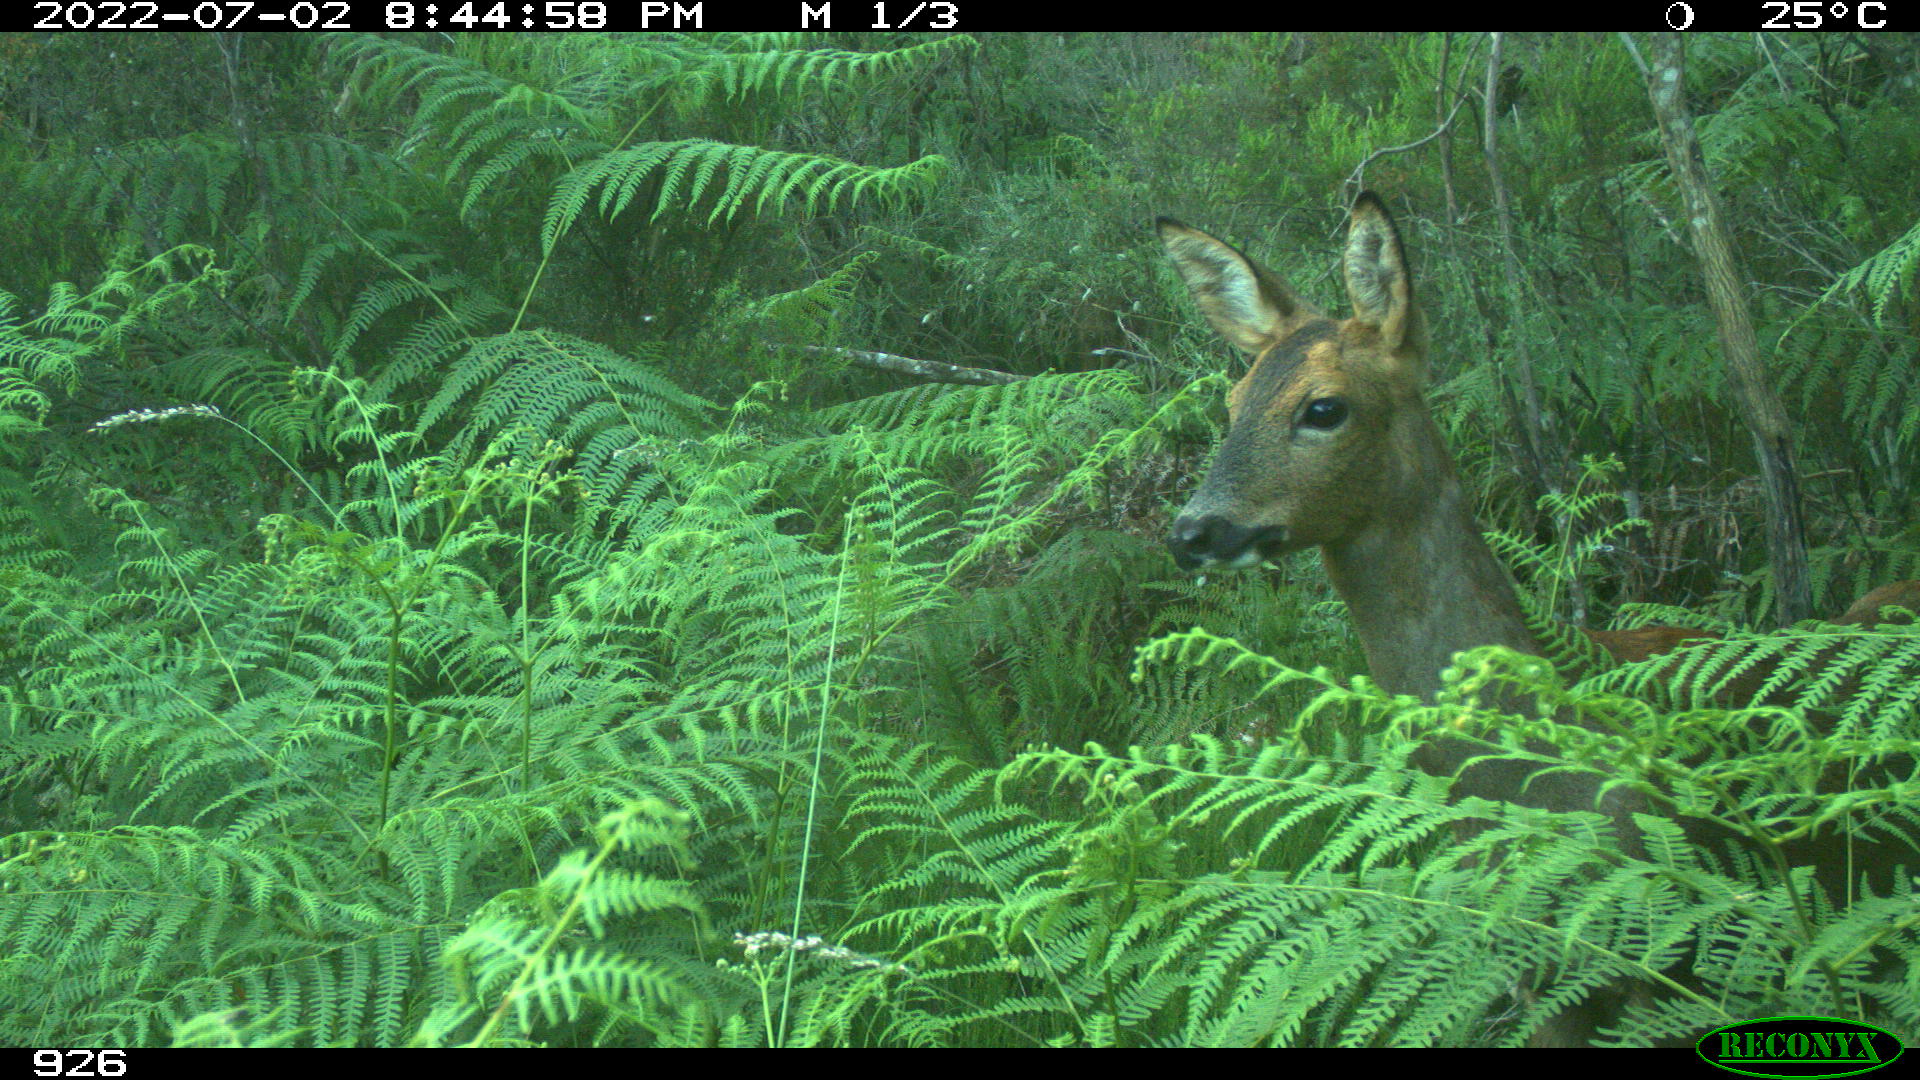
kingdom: Animalia
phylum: Chordata
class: Mammalia
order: Artiodactyla
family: Cervidae
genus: Capreolus
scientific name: Capreolus capreolus
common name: Western roe deer
